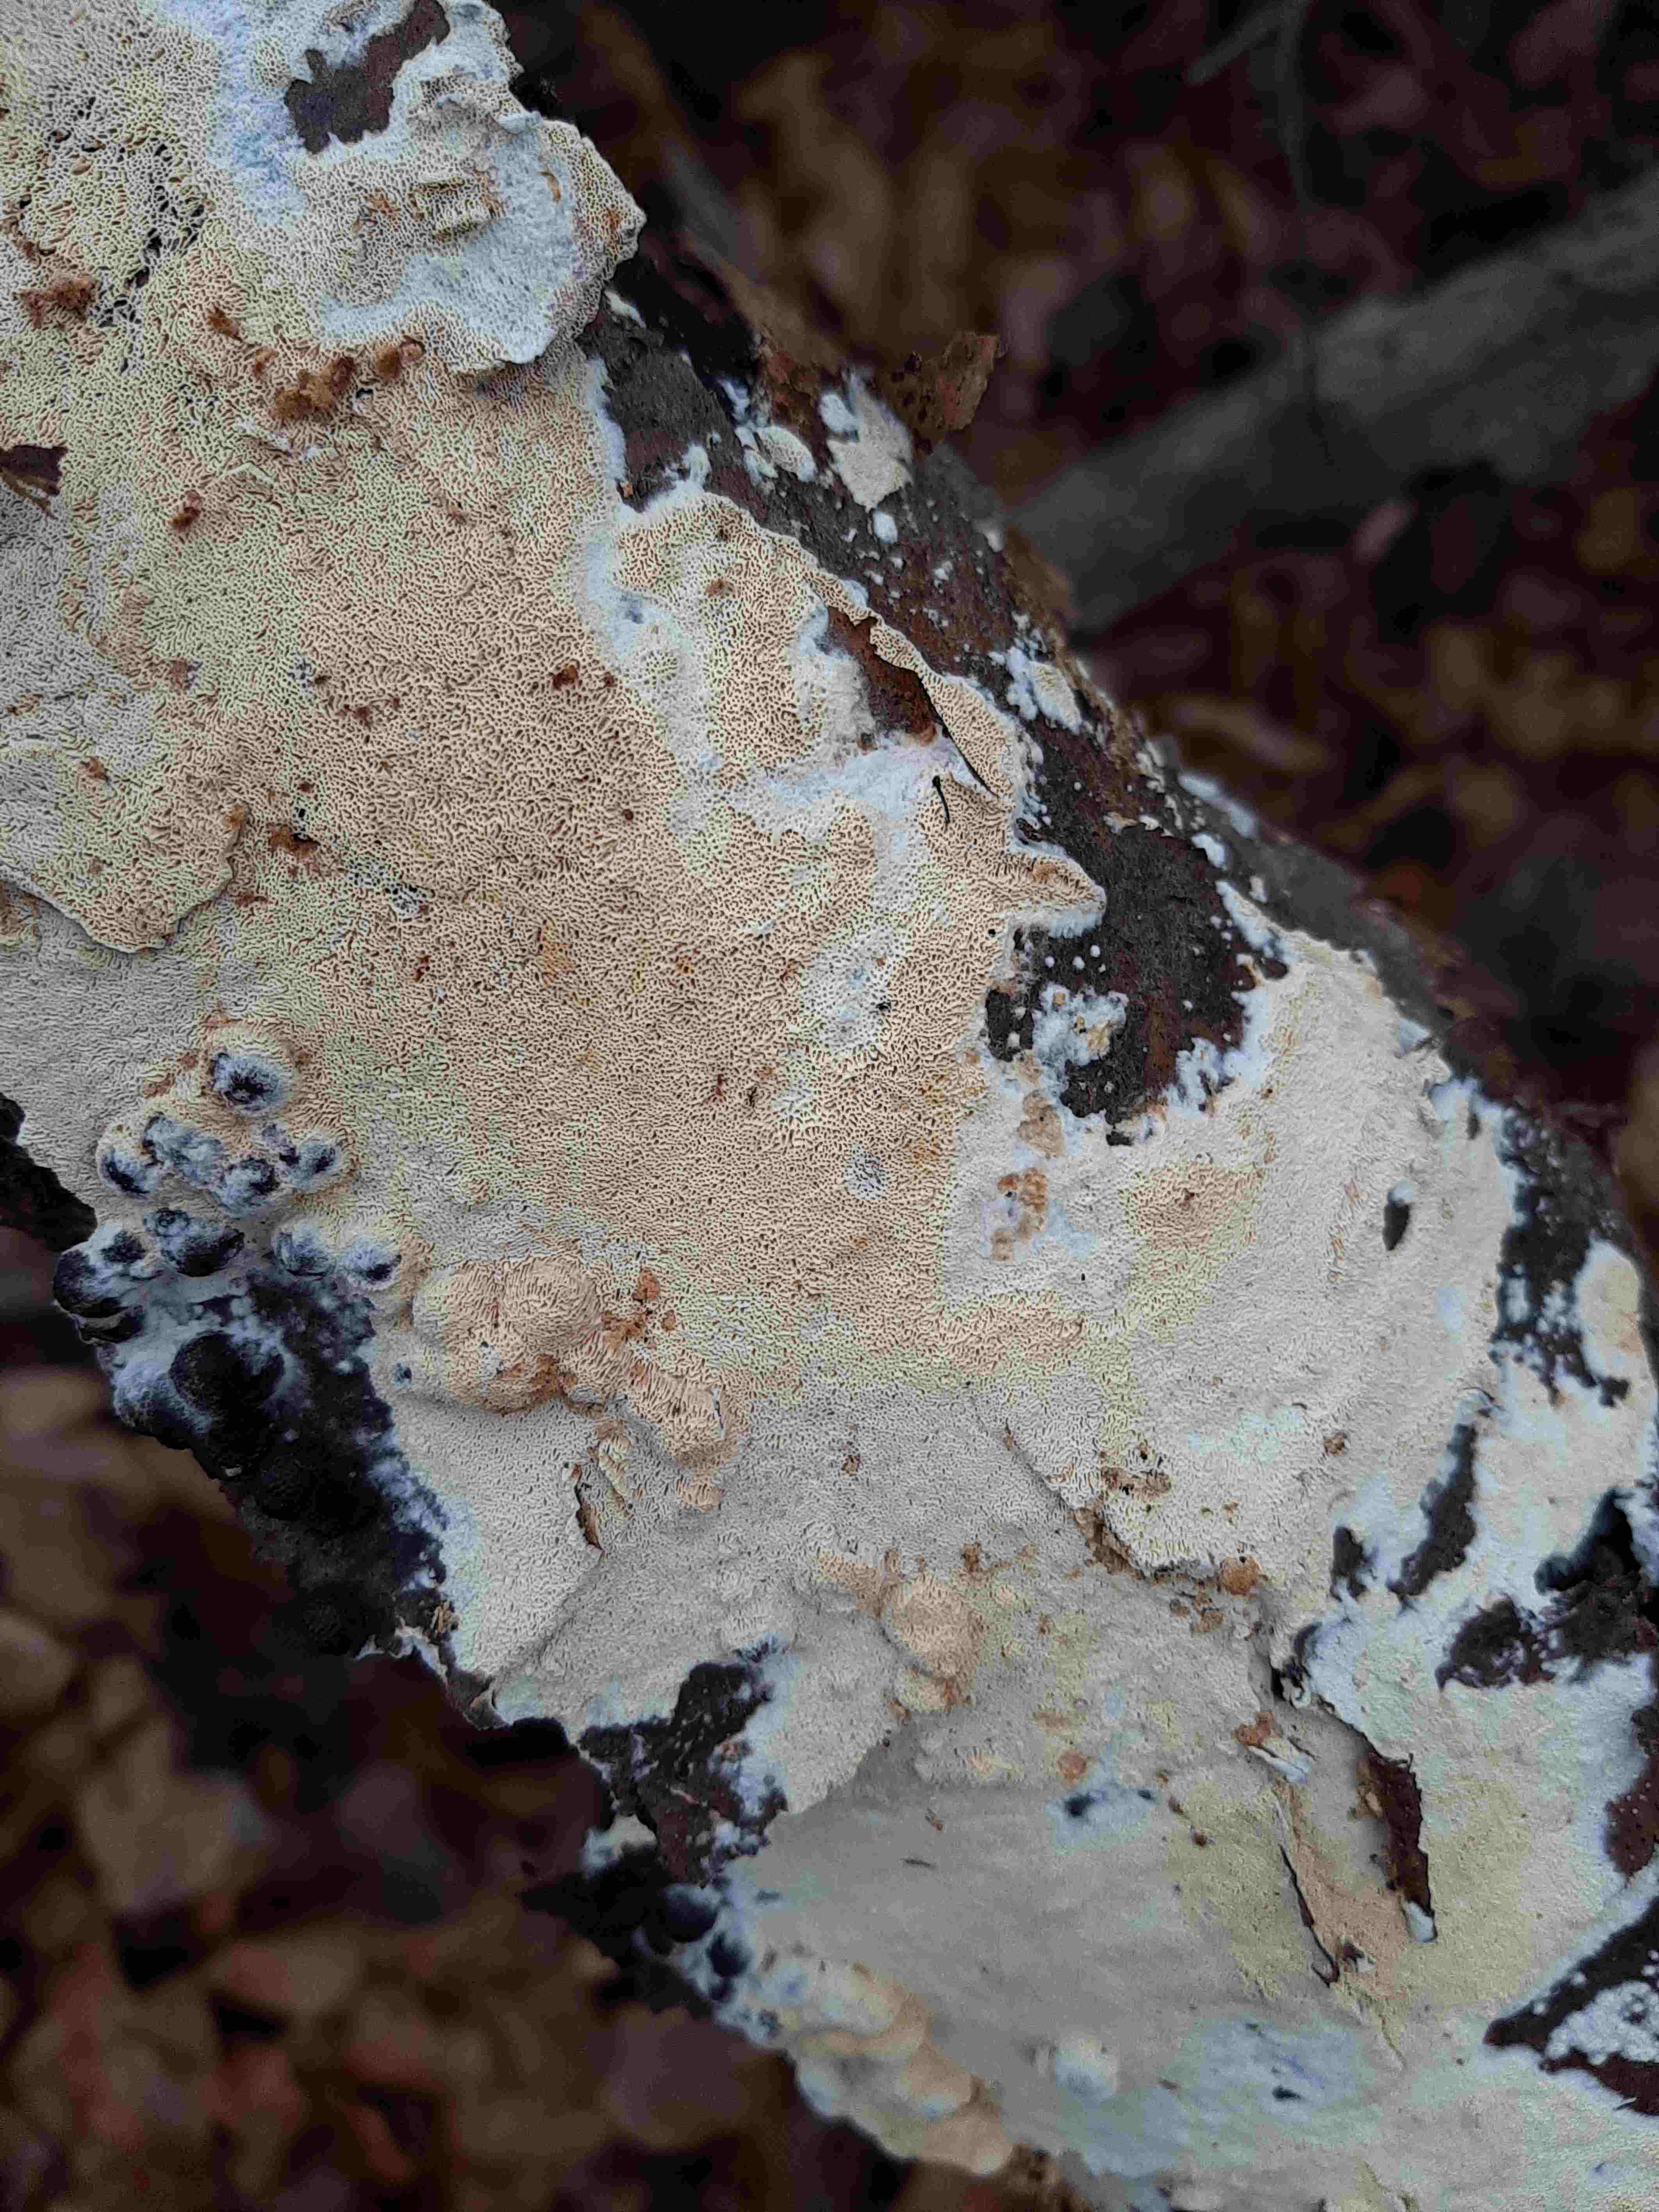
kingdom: Fungi
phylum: Basidiomycota
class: Agaricomycetes
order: Hymenochaetales
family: Schizoporaceae
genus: Xylodon
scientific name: Xylodon
